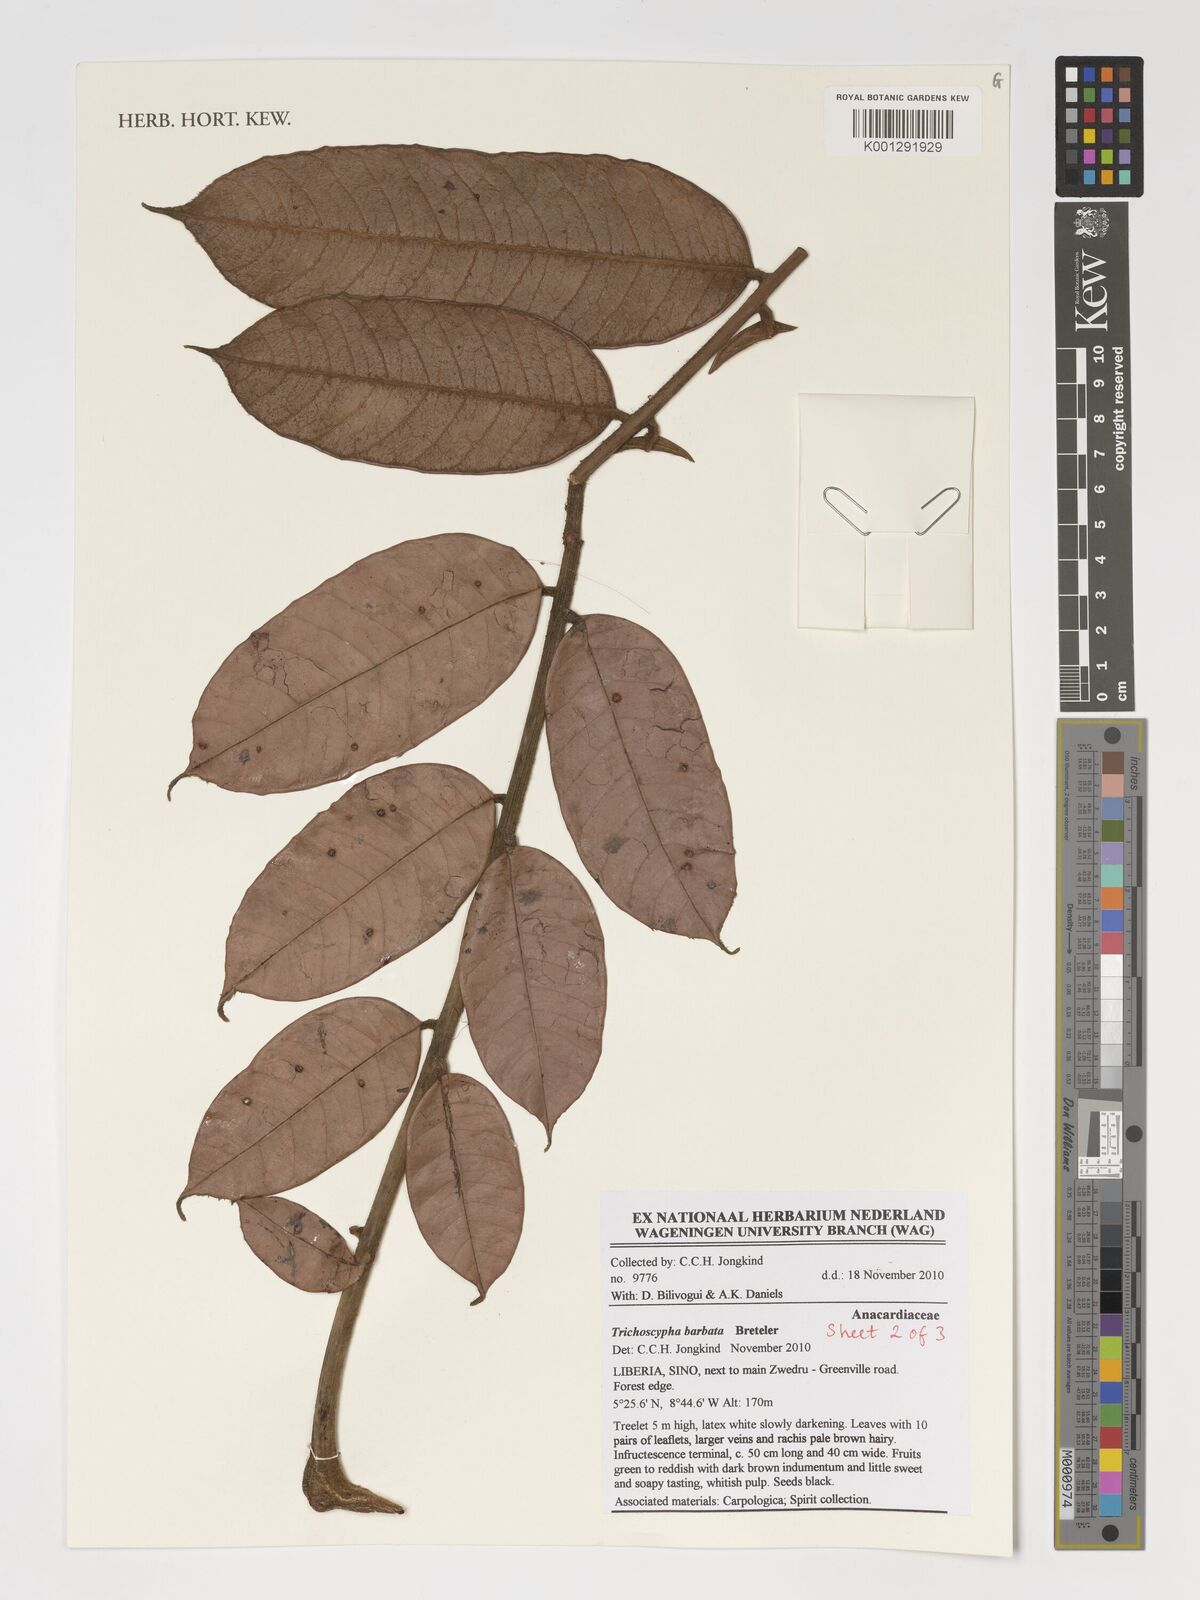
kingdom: Plantae
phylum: Tracheophyta
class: Magnoliopsida
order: Sapindales
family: Anacardiaceae
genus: Trichoscypha
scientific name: Trichoscypha barbata
